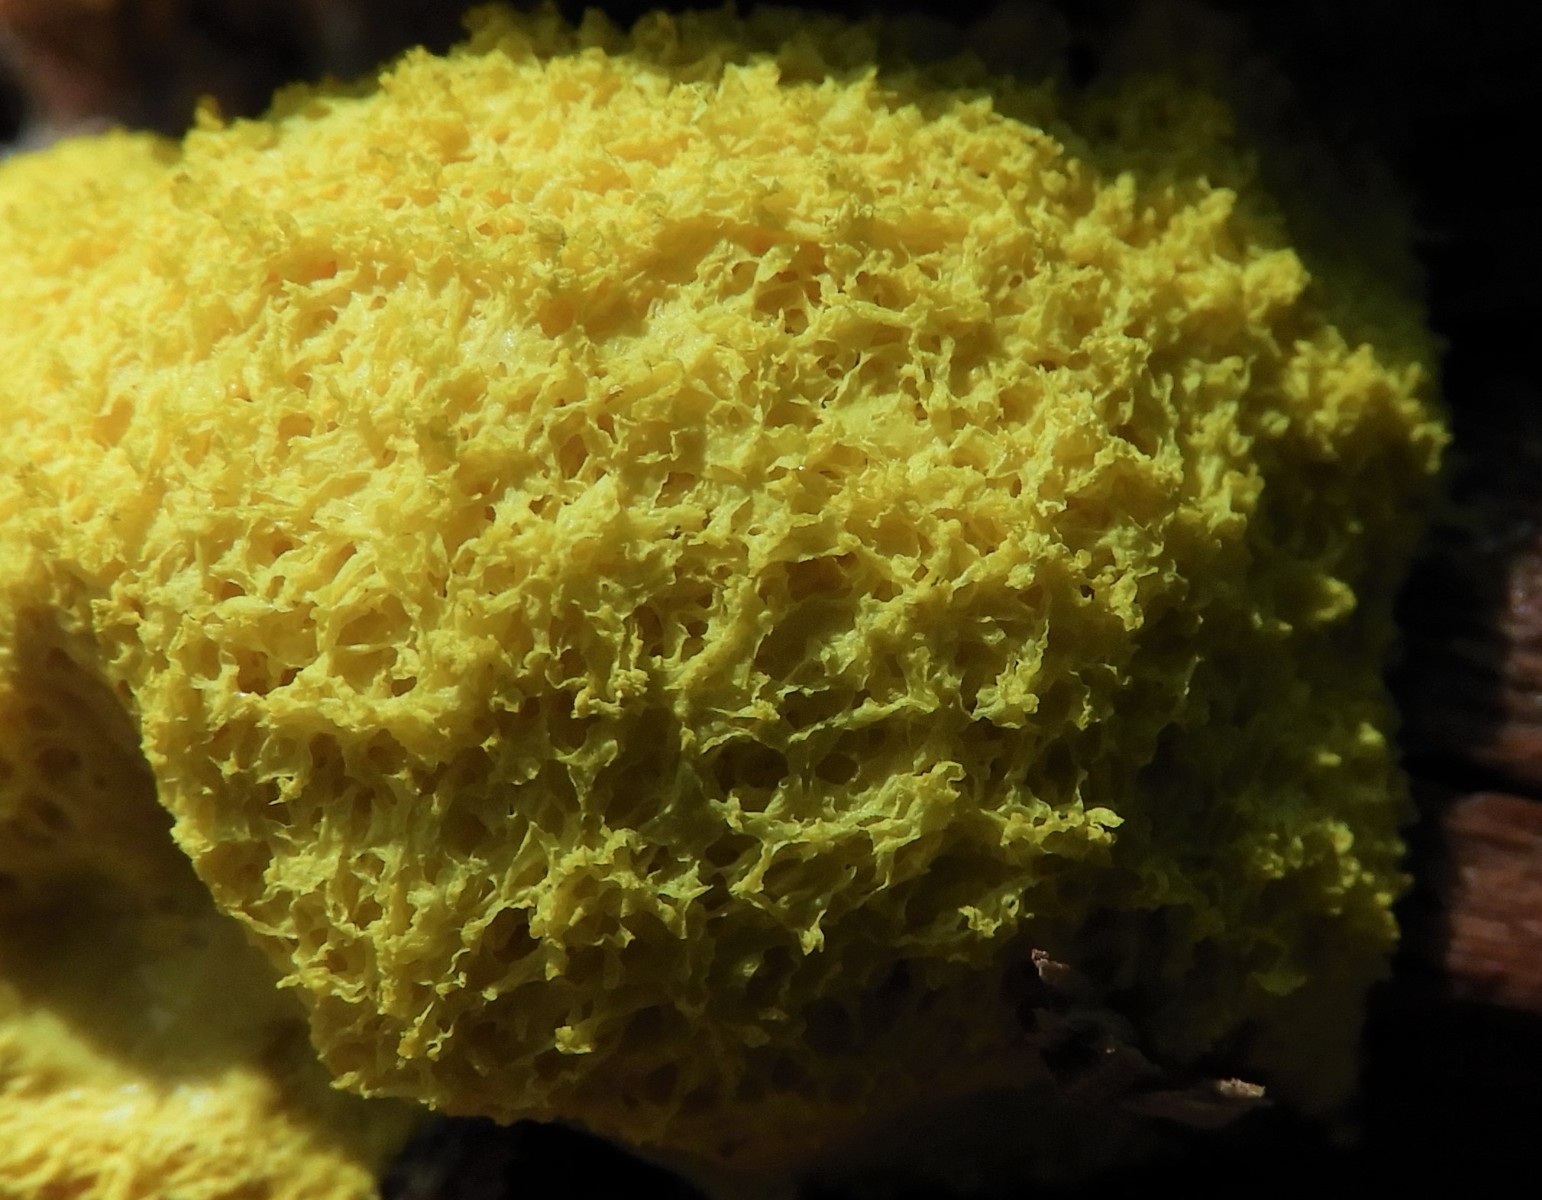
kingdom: Protozoa
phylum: Mycetozoa
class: Myxomycetes
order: Physarales
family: Physaraceae
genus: Fuligo
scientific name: Fuligo septica
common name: gul troldsmør
